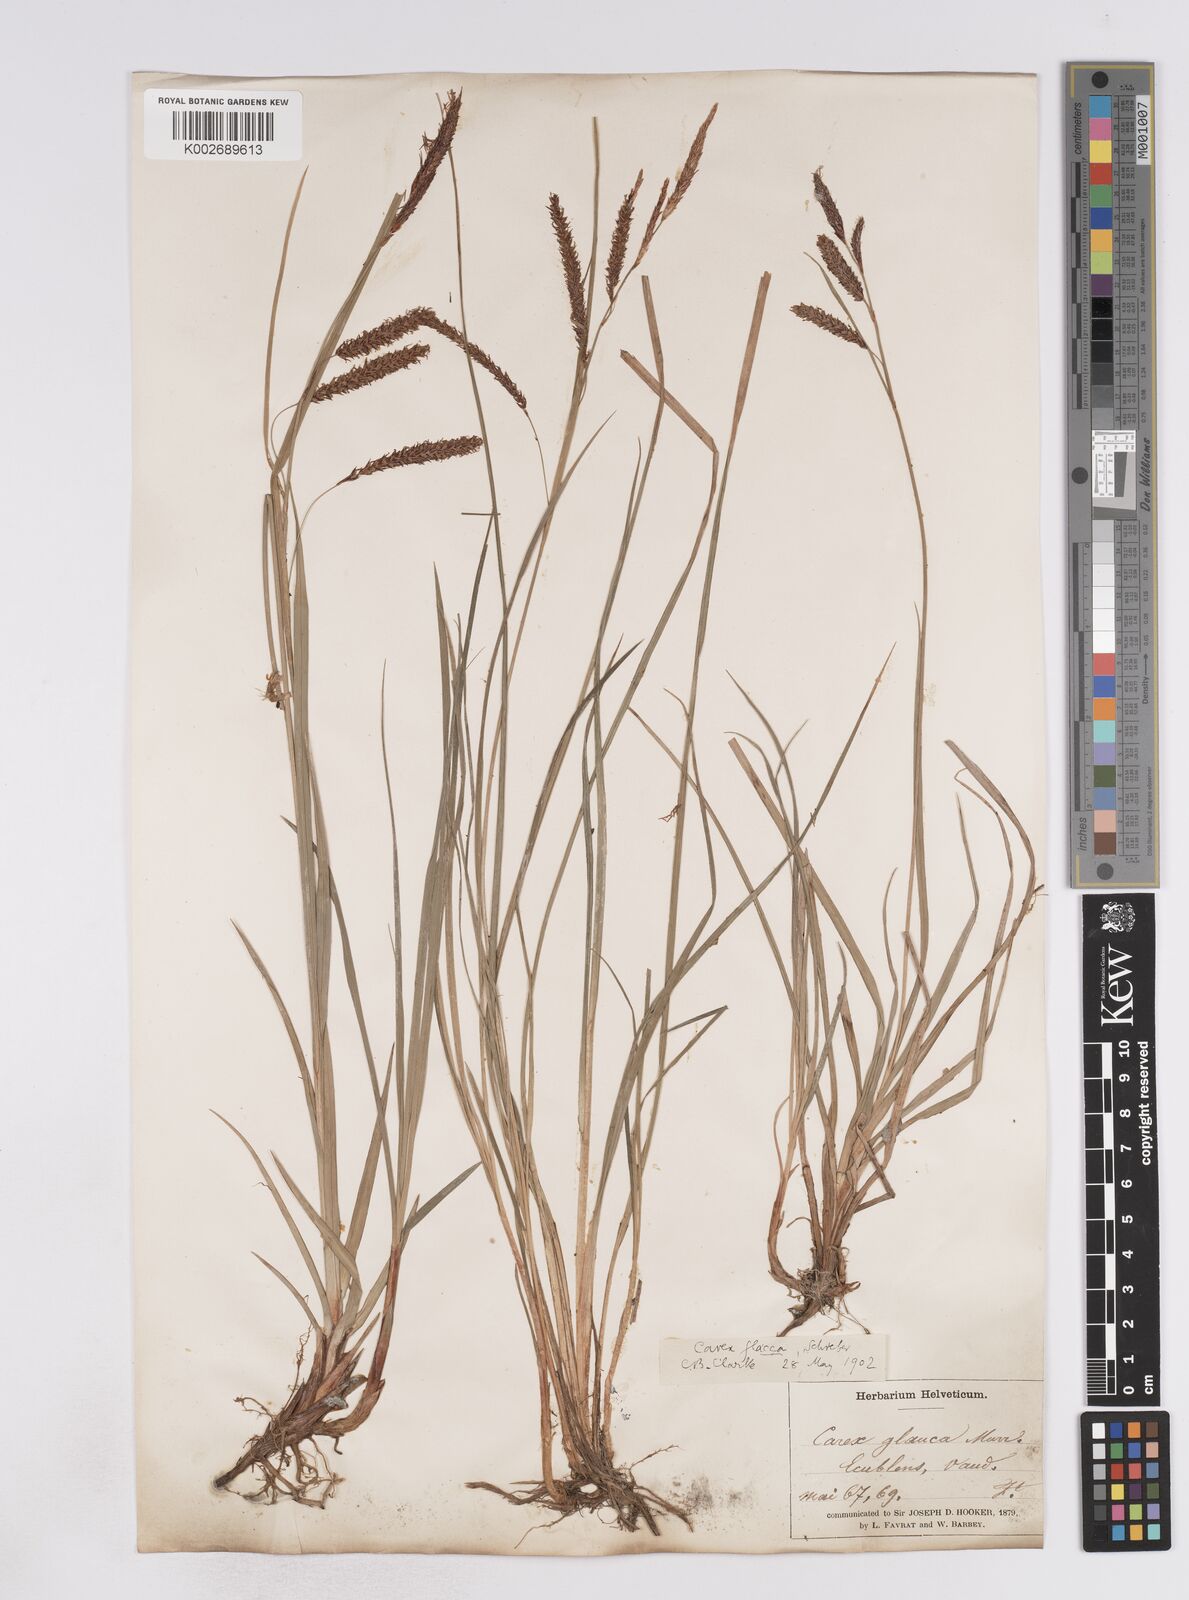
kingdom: Plantae
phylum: Tracheophyta
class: Liliopsida
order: Poales
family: Cyperaceae
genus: Carex
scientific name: Carex flacca
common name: Glaucous sedge
